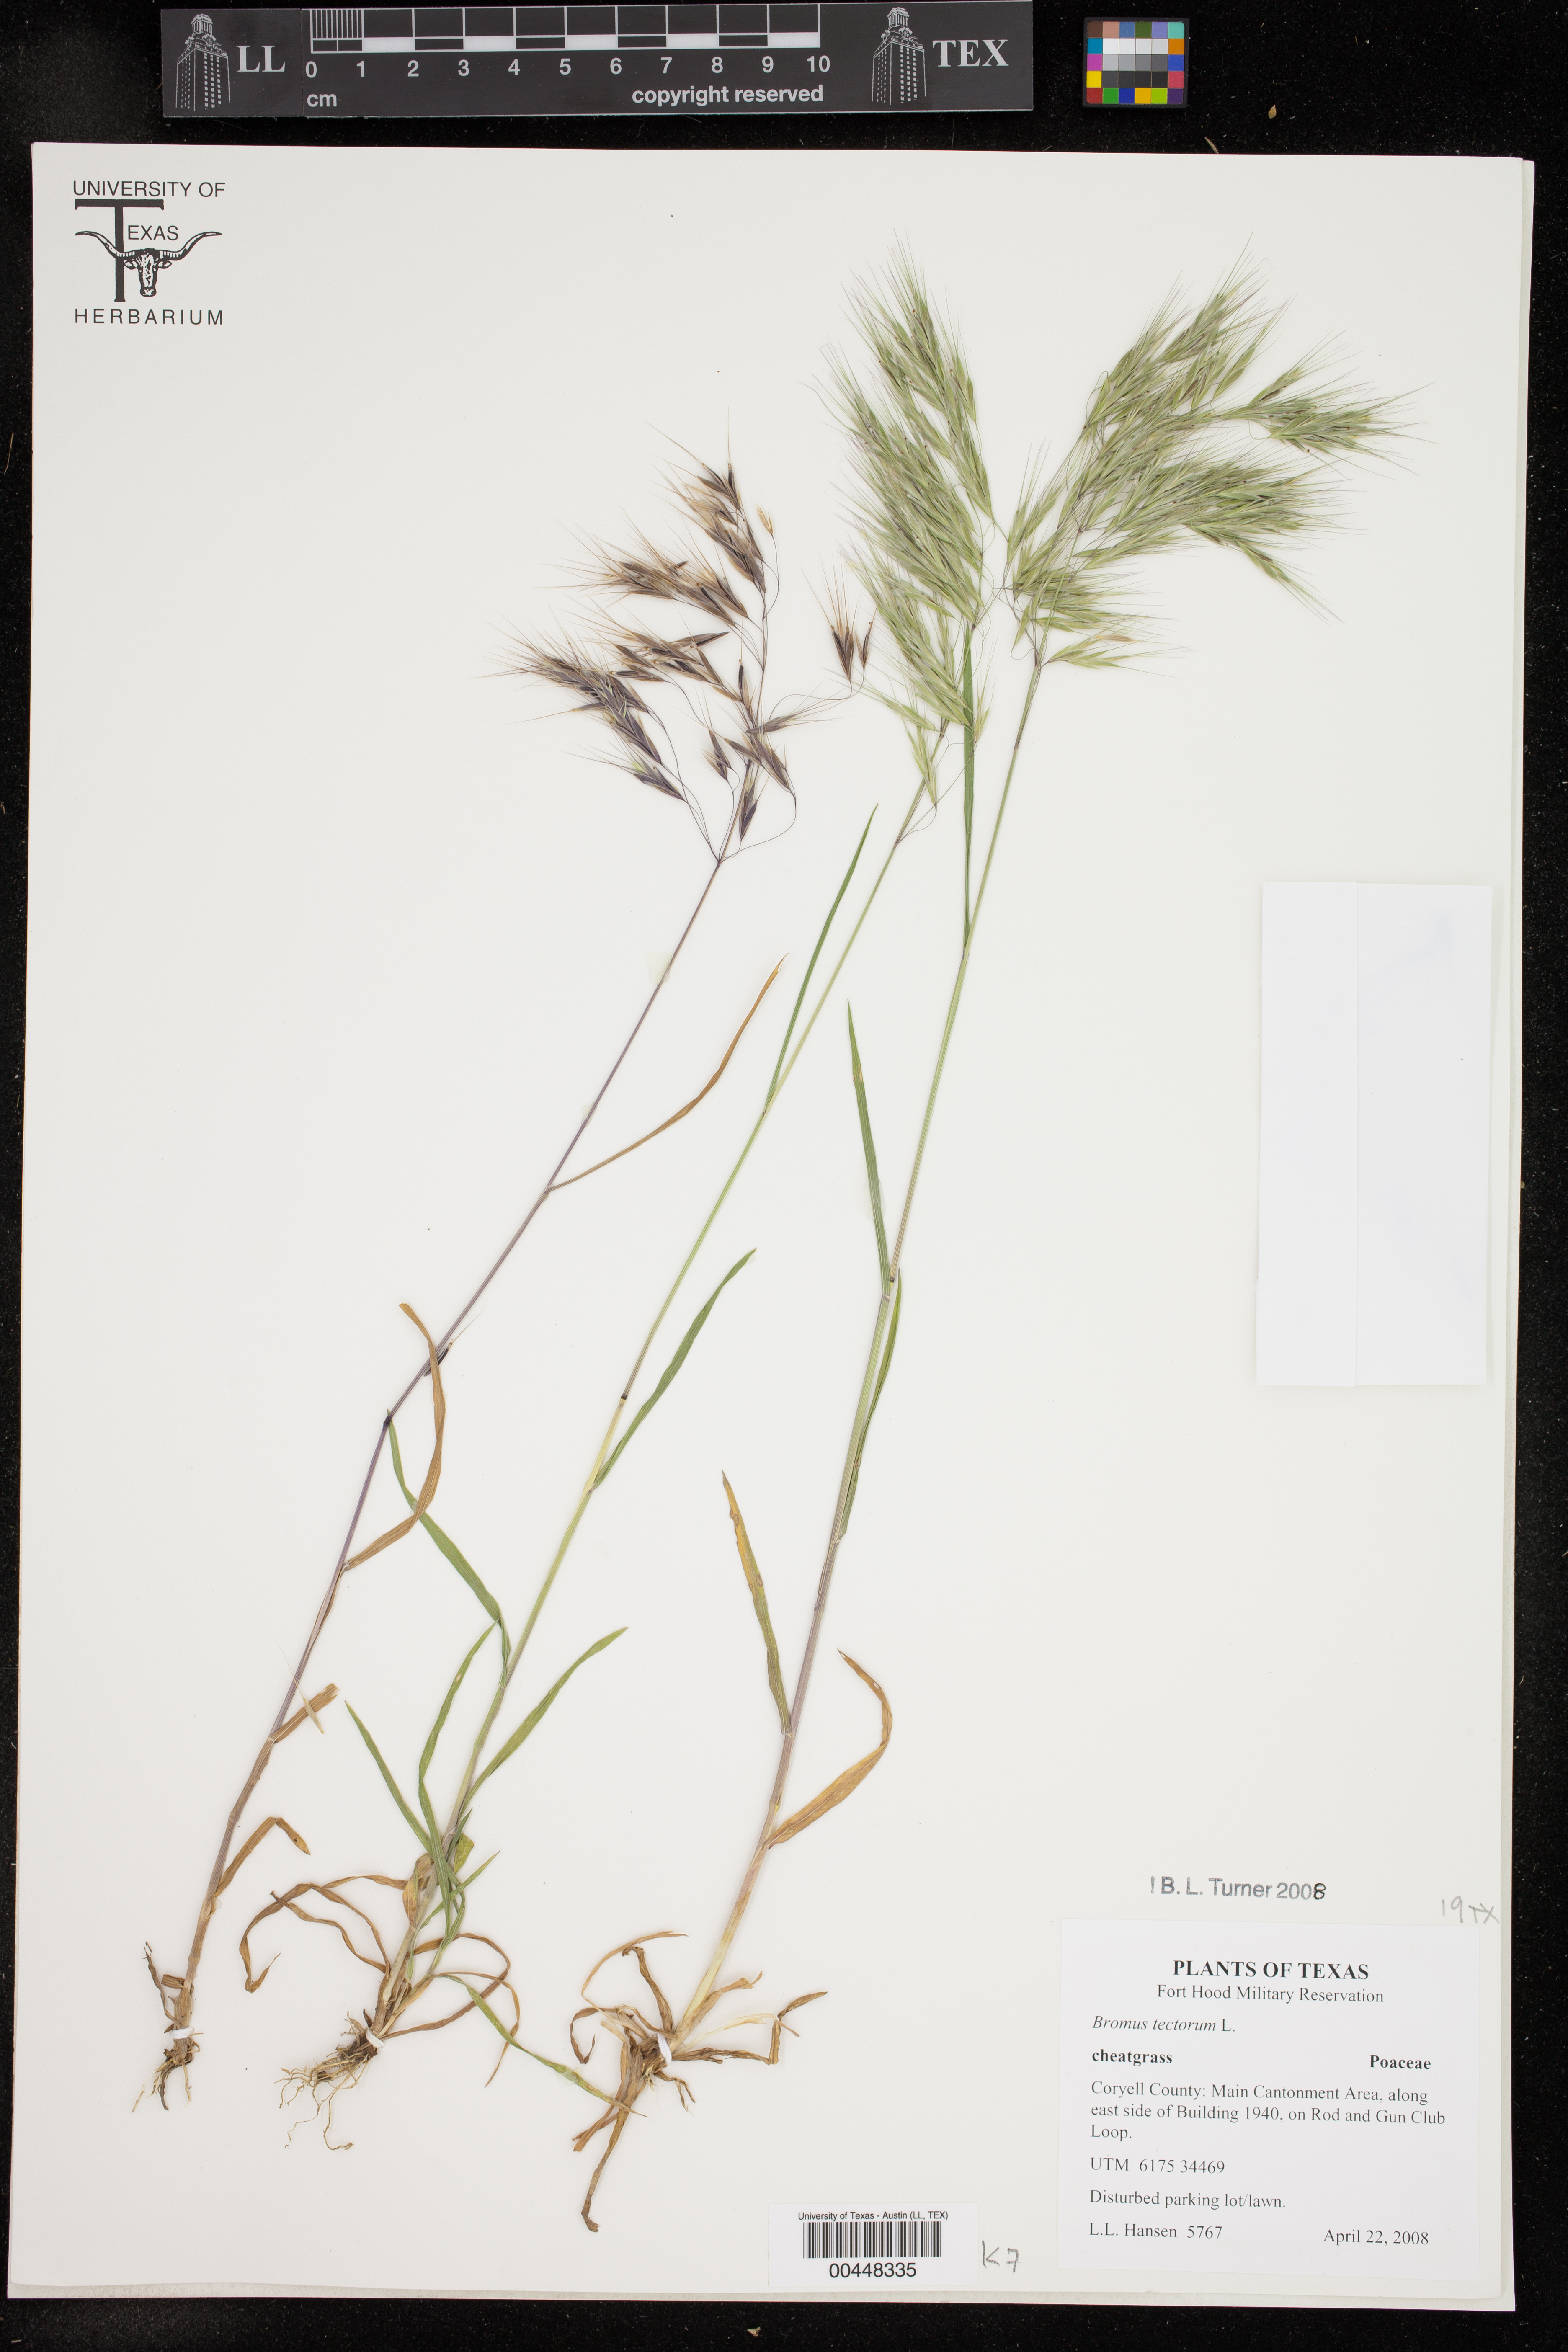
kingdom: Plantae
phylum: Tracheophyta
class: Liliopsida
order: Poales
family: Poaceae
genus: Bromus
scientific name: Bromus tectorum
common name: Cheatgrass
